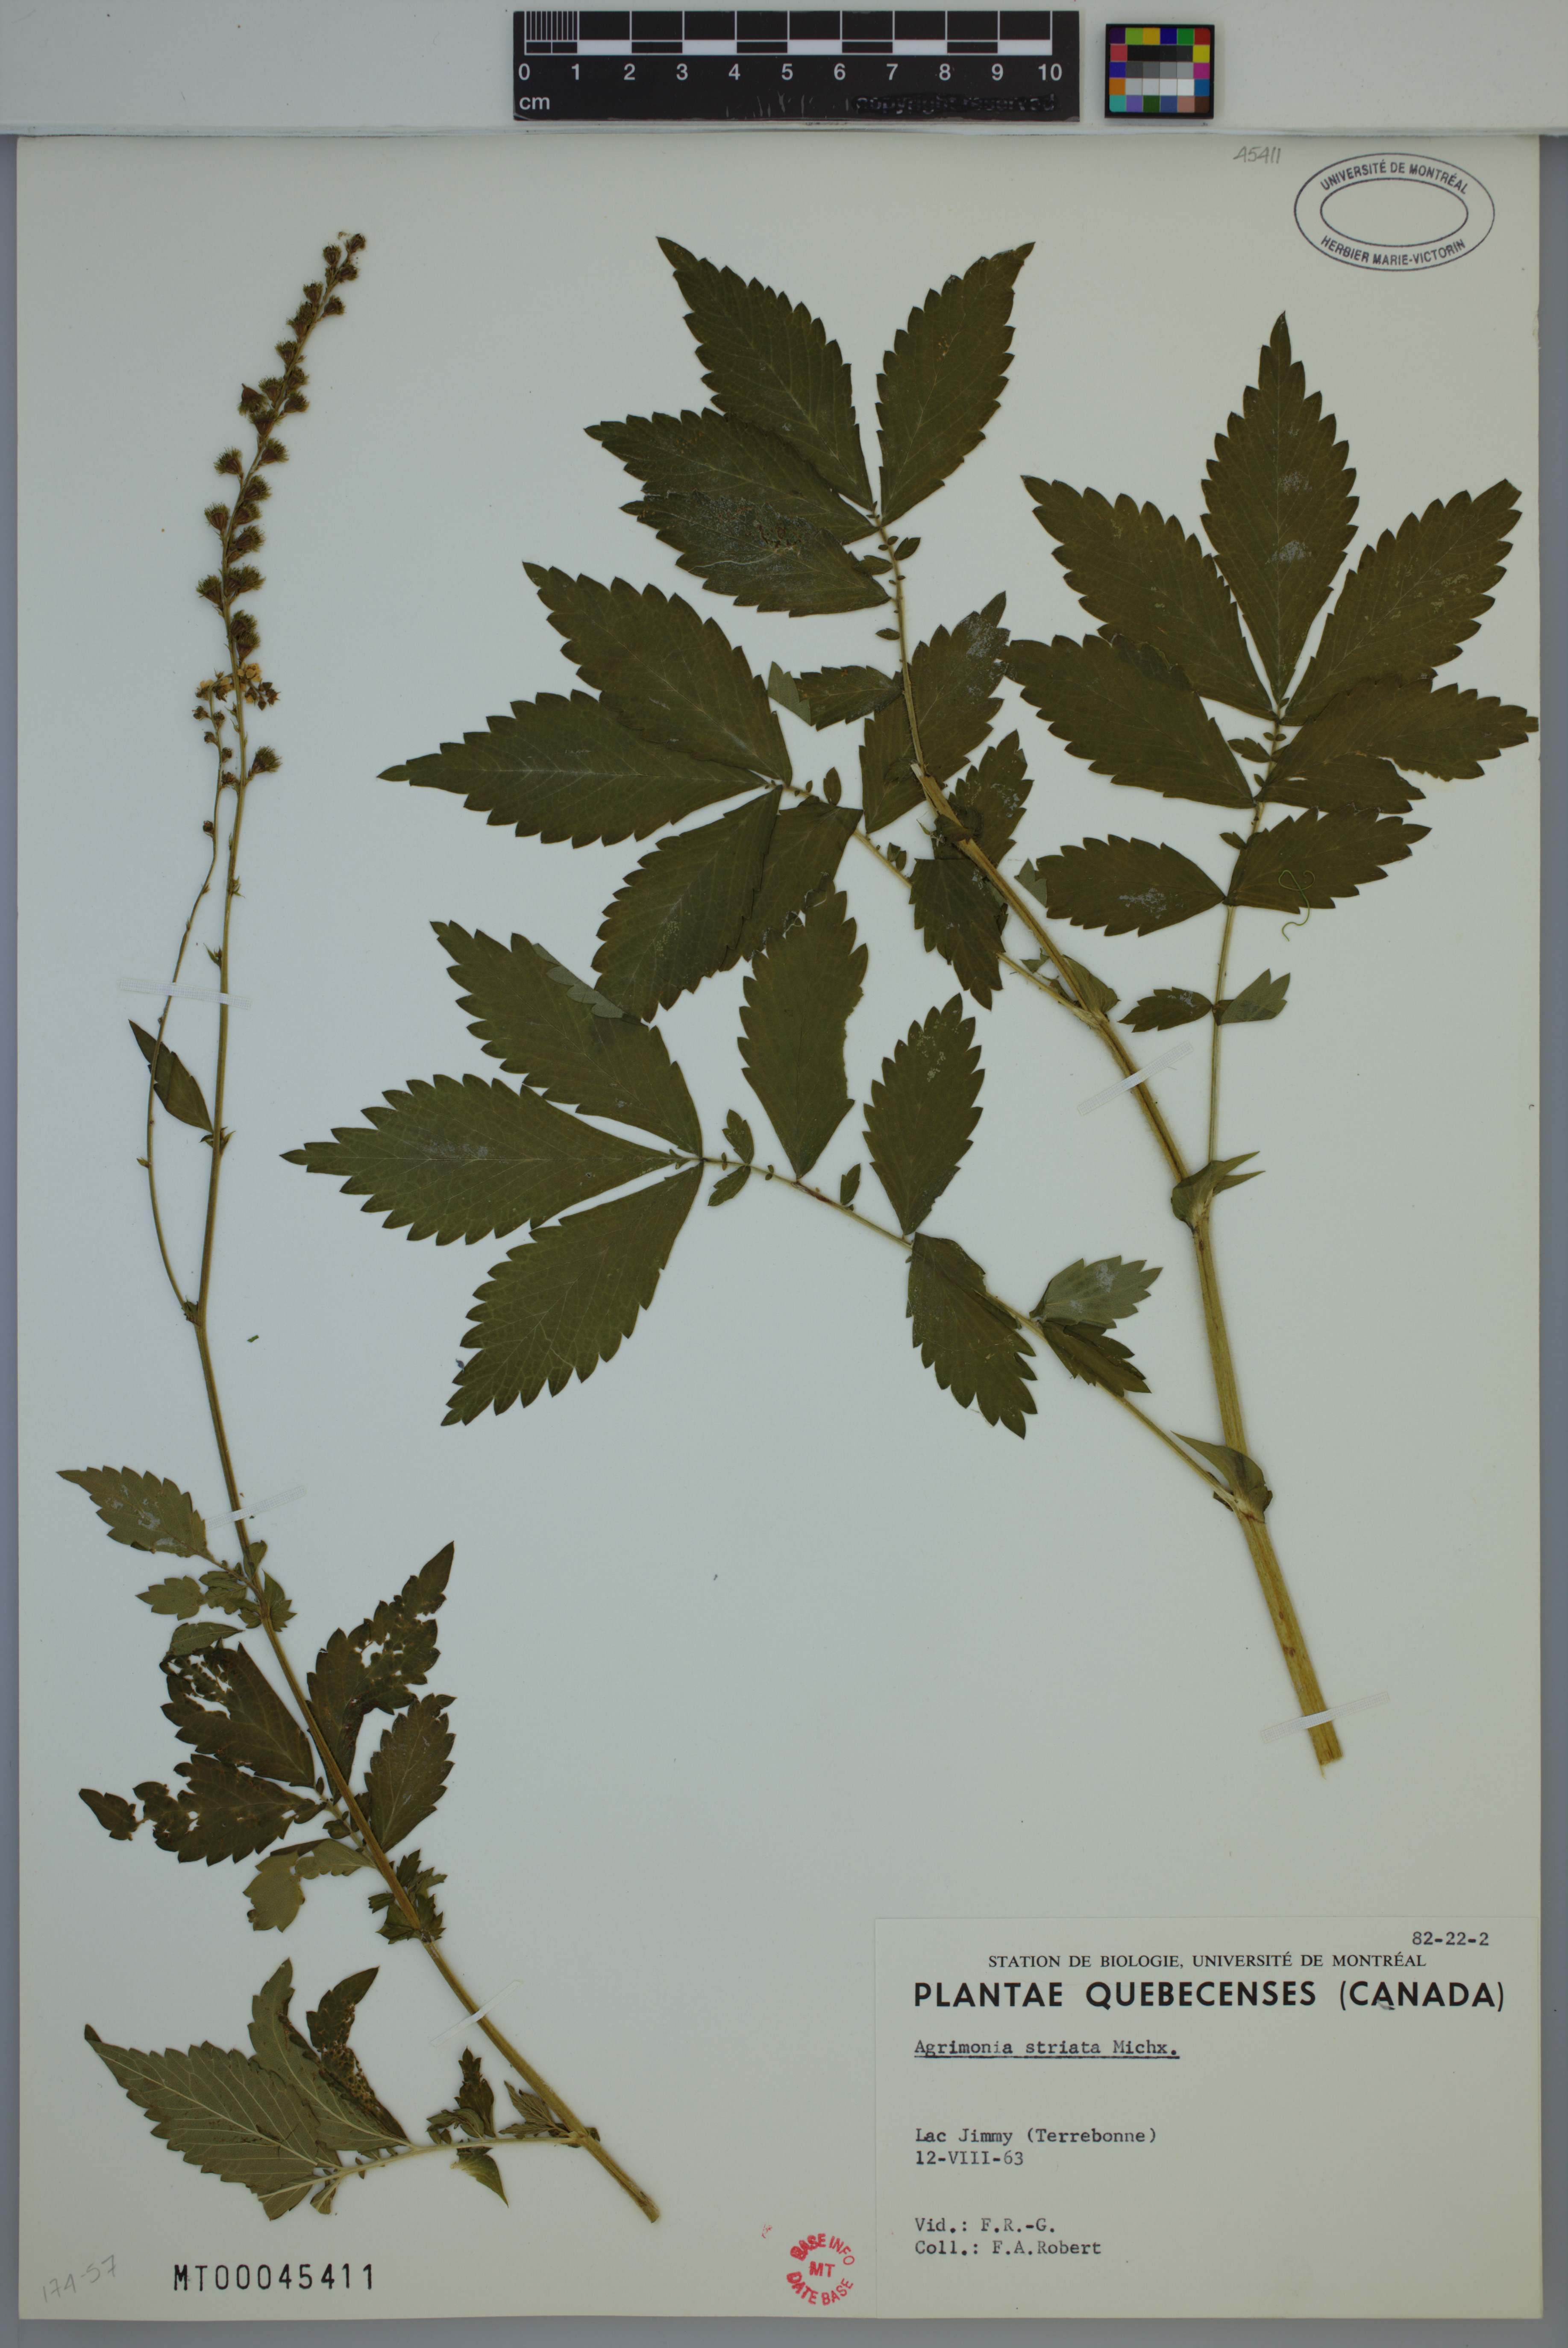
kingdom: Plantae
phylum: Tracheophyta
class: Magnoliopsida
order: Rosales
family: Rosaceae
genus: Agrimonia
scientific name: Agrimonia striata
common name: Britton's agrimony
